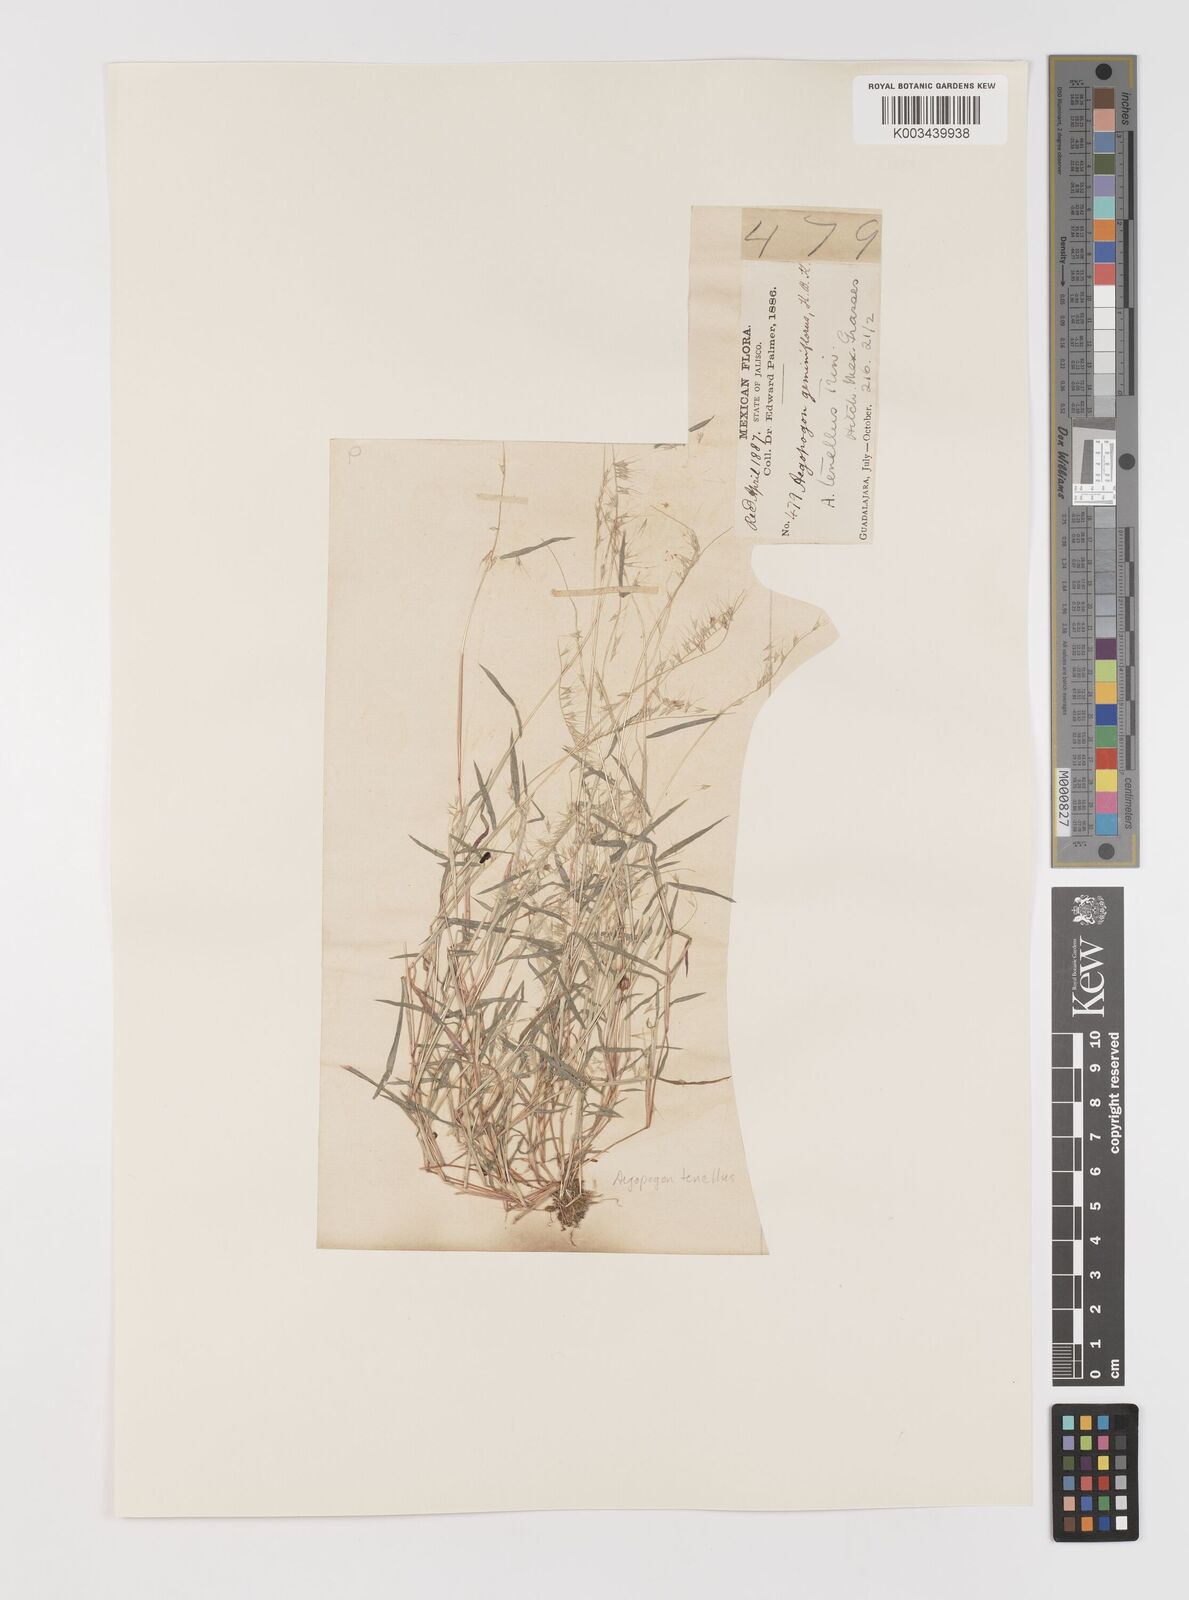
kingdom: Plantae
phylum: Tracheophyta
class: Liliopsida
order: Poales
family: Poaceae
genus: Muhlenbergia
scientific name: Muhlenbergia uniseta
